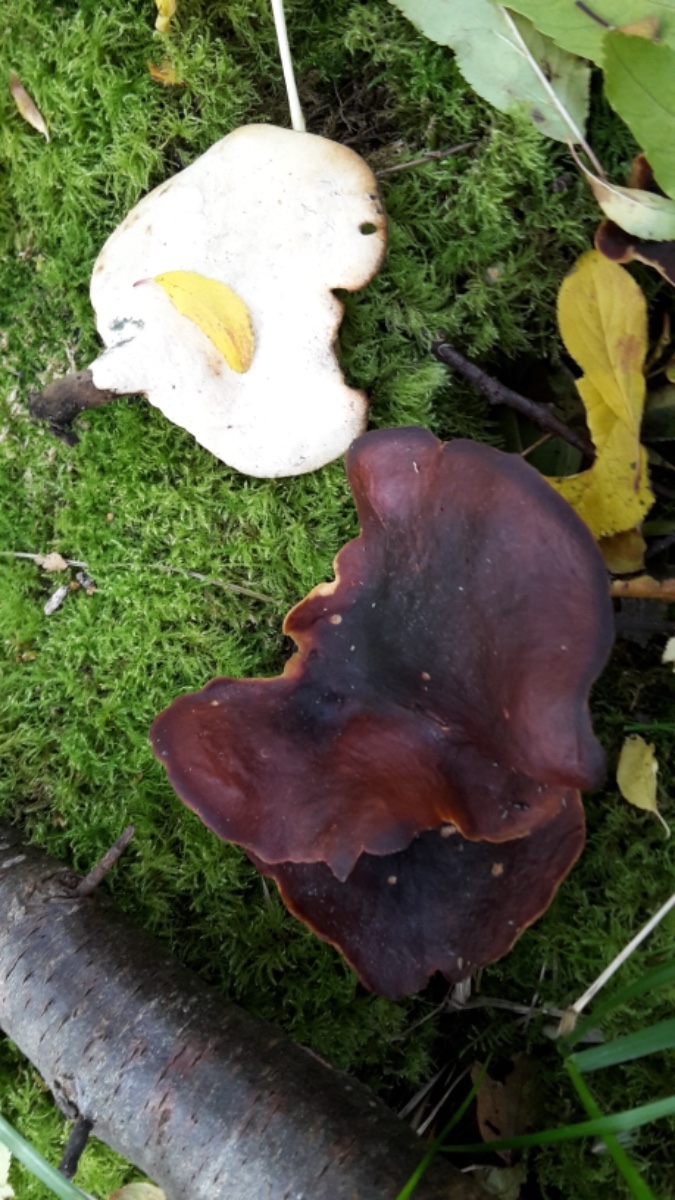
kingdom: Fungi
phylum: Basidiomycota
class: Agaricomycetes
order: Polyporales
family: Polyporaceae
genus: Picipes
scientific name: Picipes badius
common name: kastaniebrun stilkporesvamp
